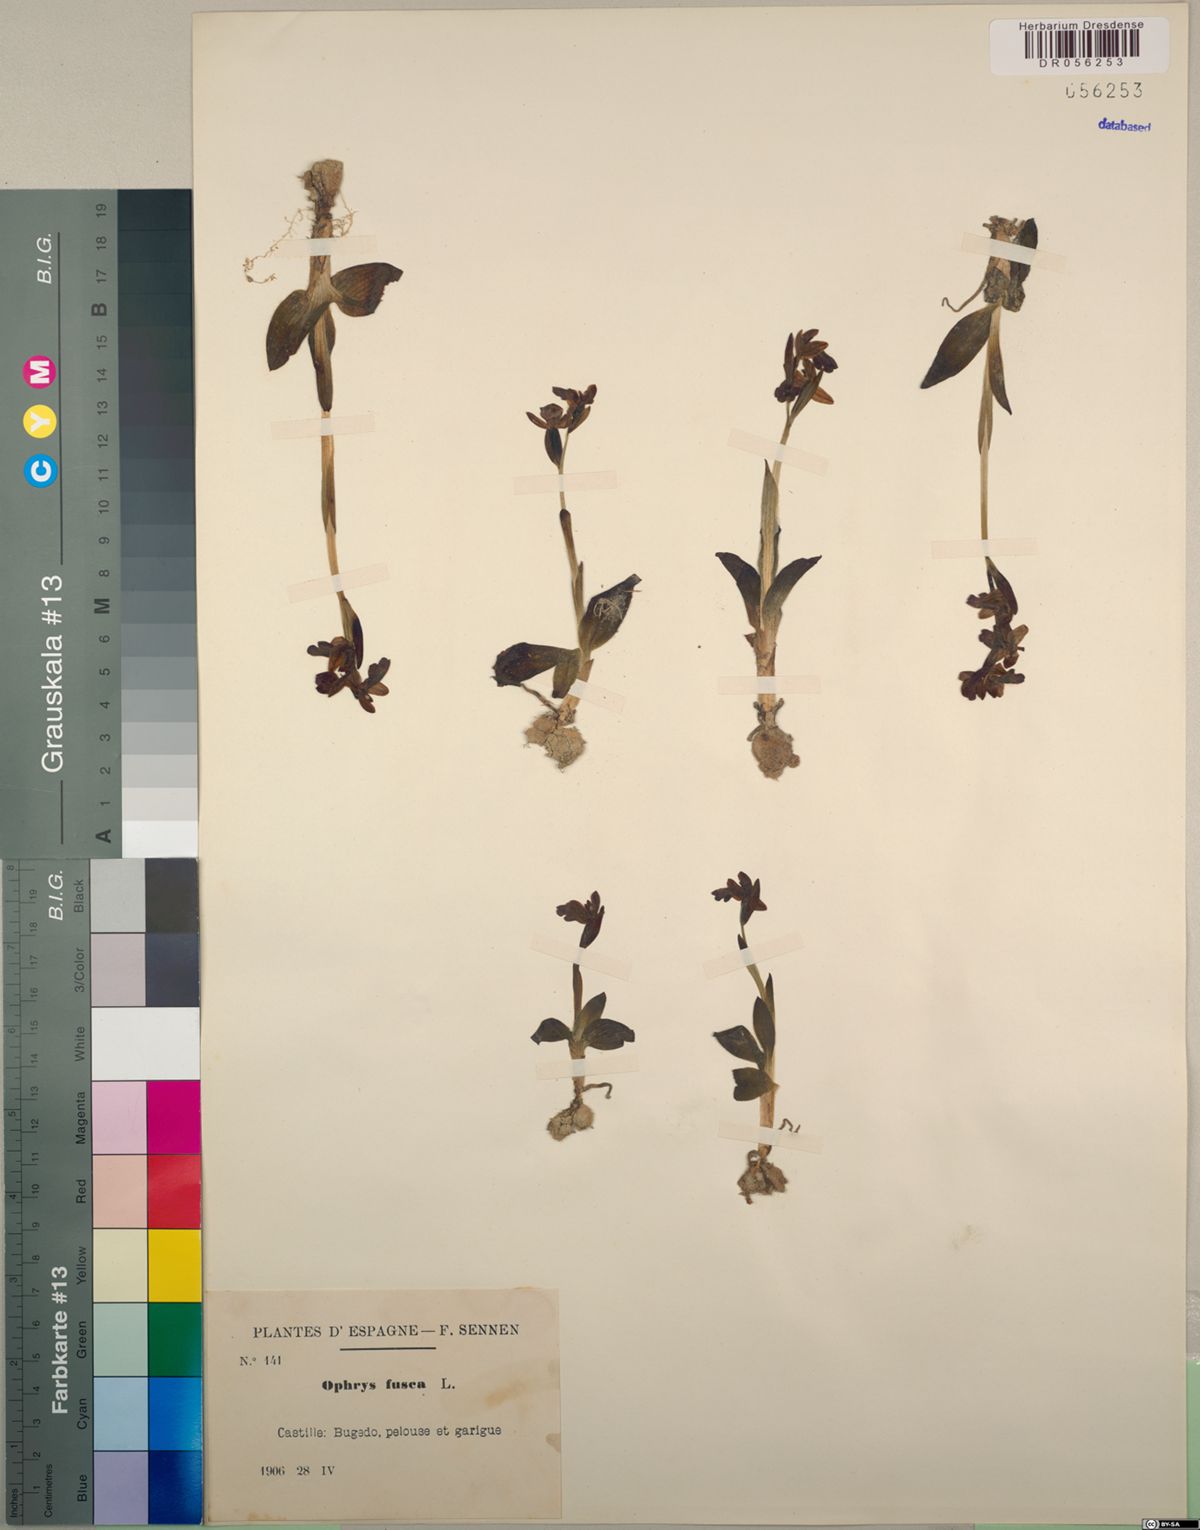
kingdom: Plantae
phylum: Tracheophyta
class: Liliopsida
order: Asparagales
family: Orchidaceae
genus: Ophrys
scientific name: Ophrys fusca
